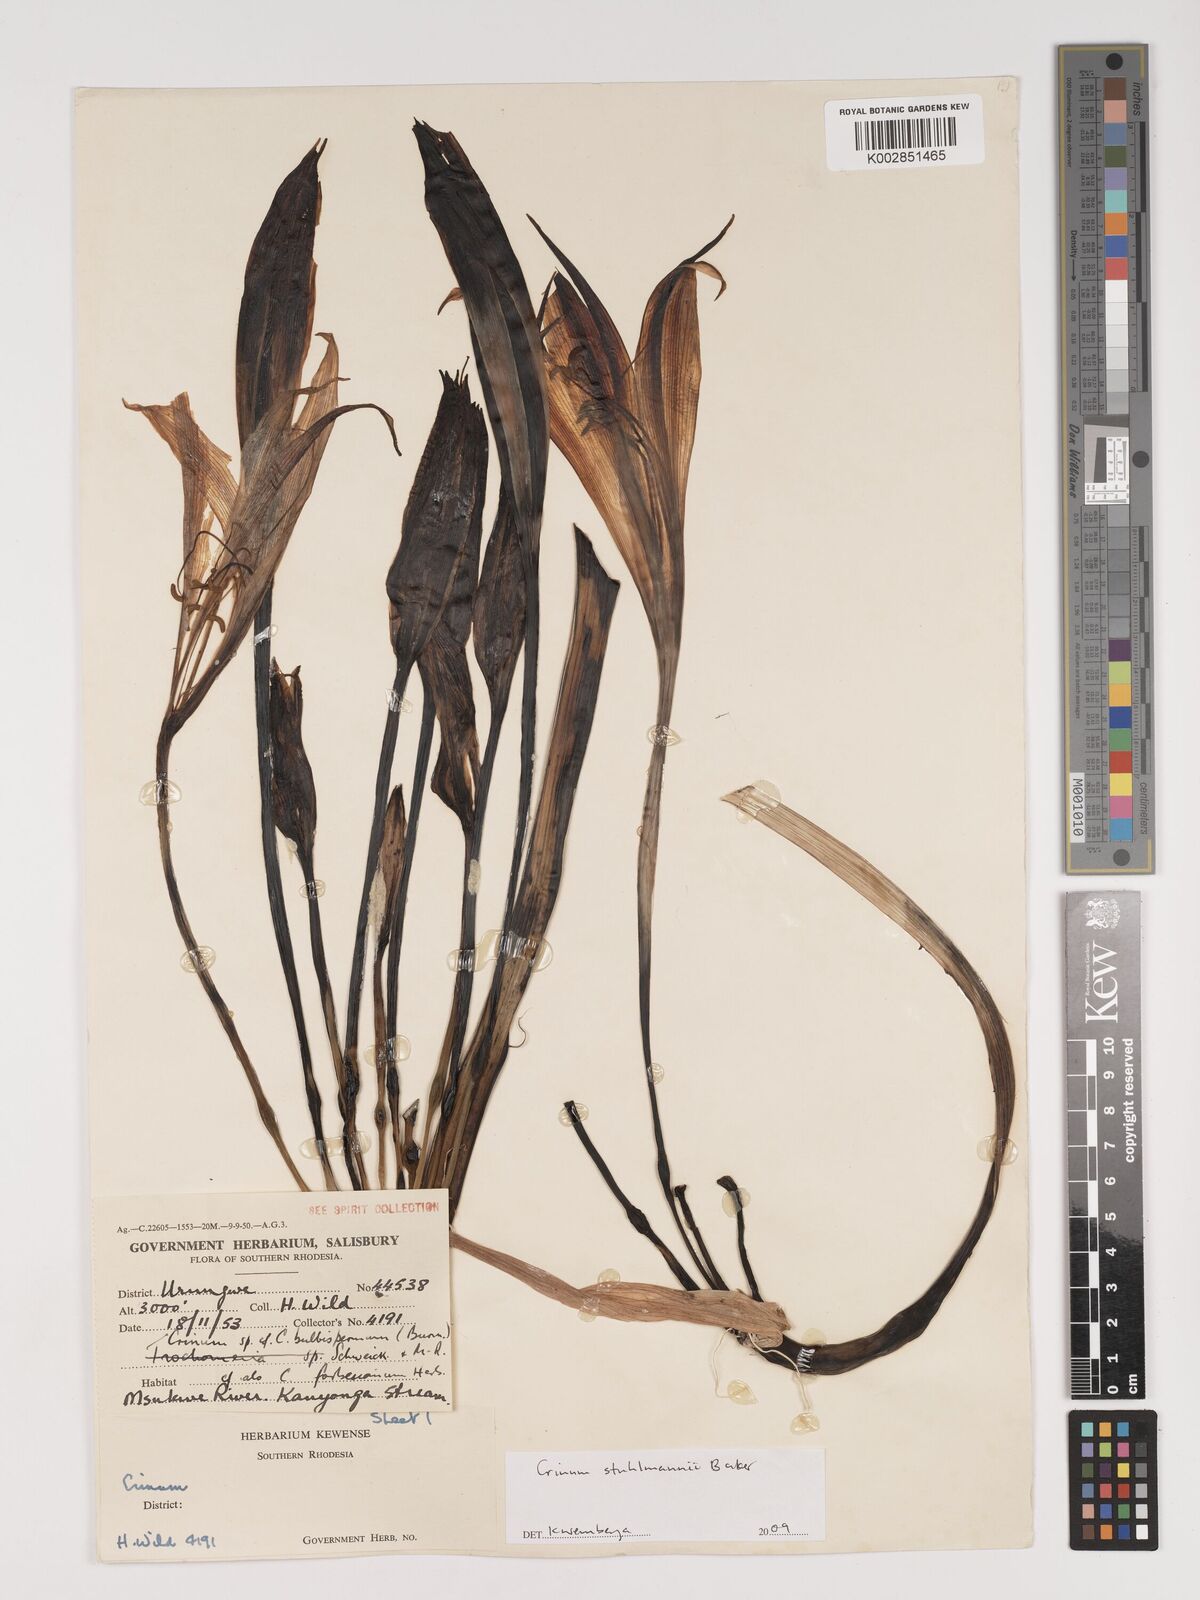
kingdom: Plantae
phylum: Tracheophyta
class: Liliopsida
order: Asparagales
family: Amaryllidaceae
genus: Crinum
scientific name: Crinum stuhlmannii
